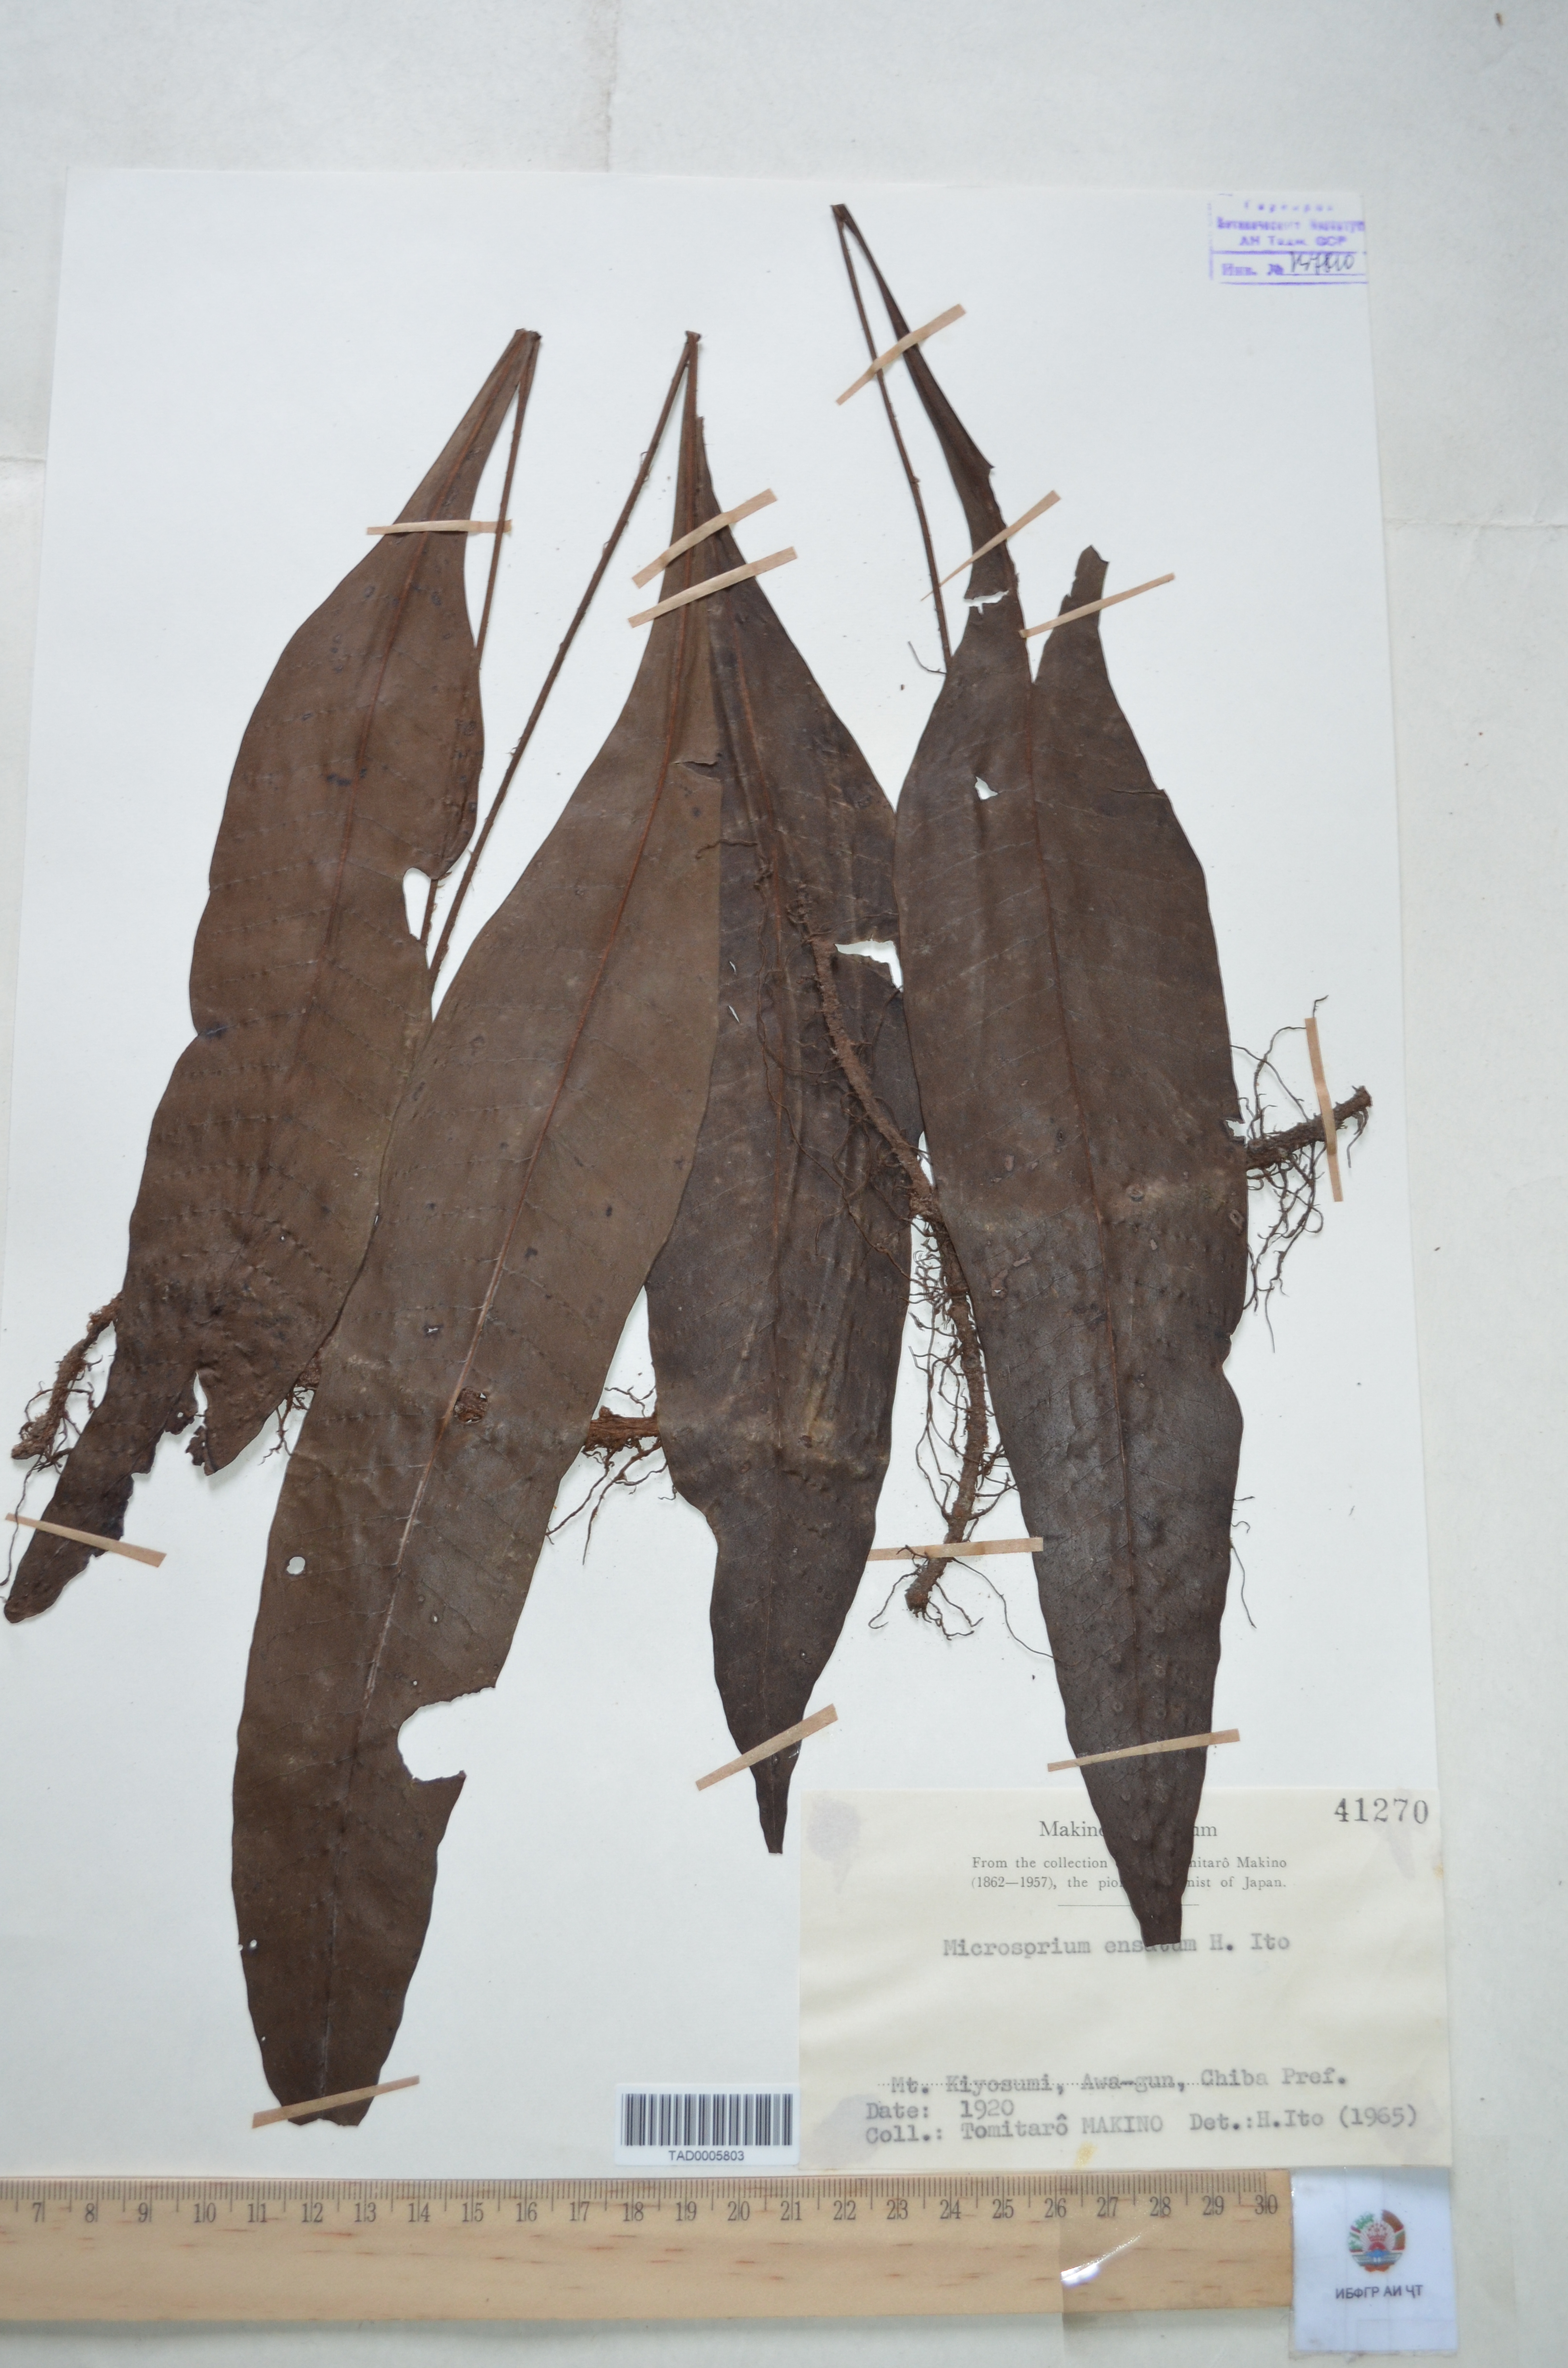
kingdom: Plantae
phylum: Tracheophyta
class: Polypodiopsida
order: Polypodiales
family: Polypodiaceae
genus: Lepisorus
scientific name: Lepisorus ensatus
